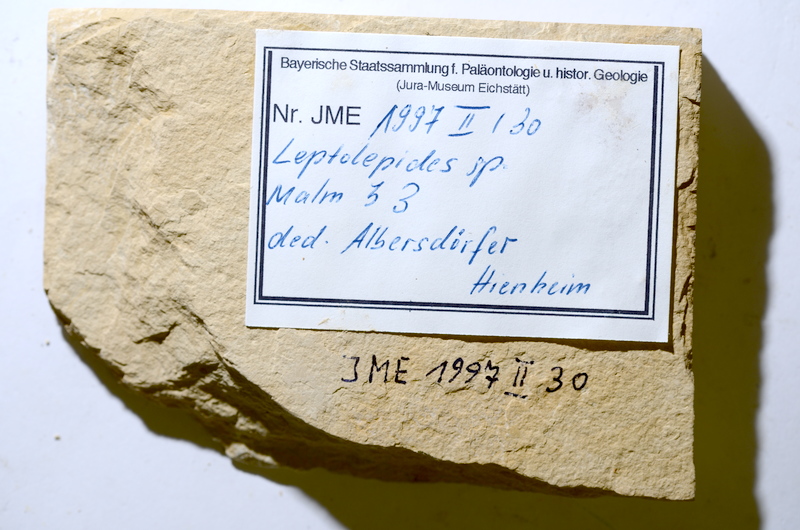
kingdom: Animalia
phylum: Chordata
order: Salmoniformes
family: Orthogonikleithridae
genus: Leptolepides
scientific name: Leptolepides
